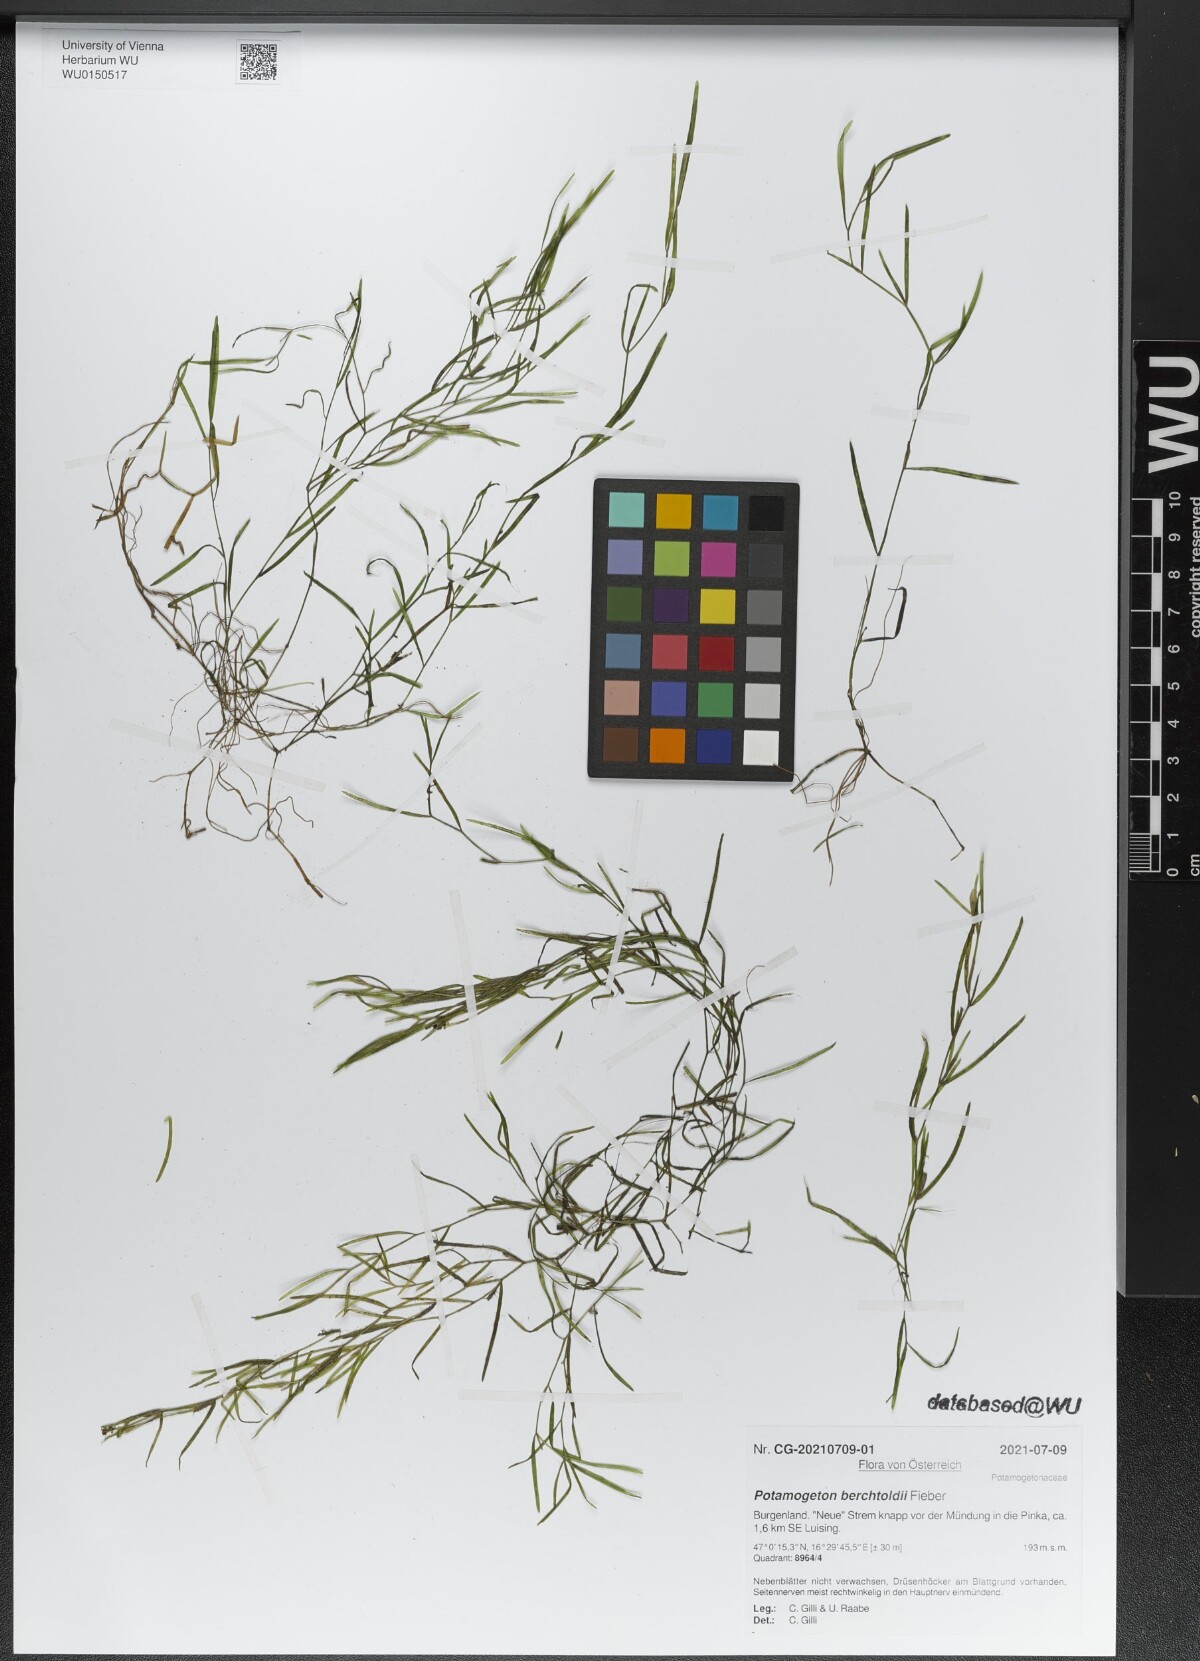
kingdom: Plantae
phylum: Tracheophyta
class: Liliopsida
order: Alismatales
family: Potamogetonaceae
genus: Potamogeton
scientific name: Potamogeton berchtoldii
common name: Small pondweed
